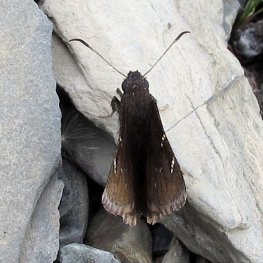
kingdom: Animalia
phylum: Arthropoda
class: Insecta
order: Lepidoptera
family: Hesperiidae
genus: Autochton
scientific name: Autochton
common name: Northern Cloudywing
